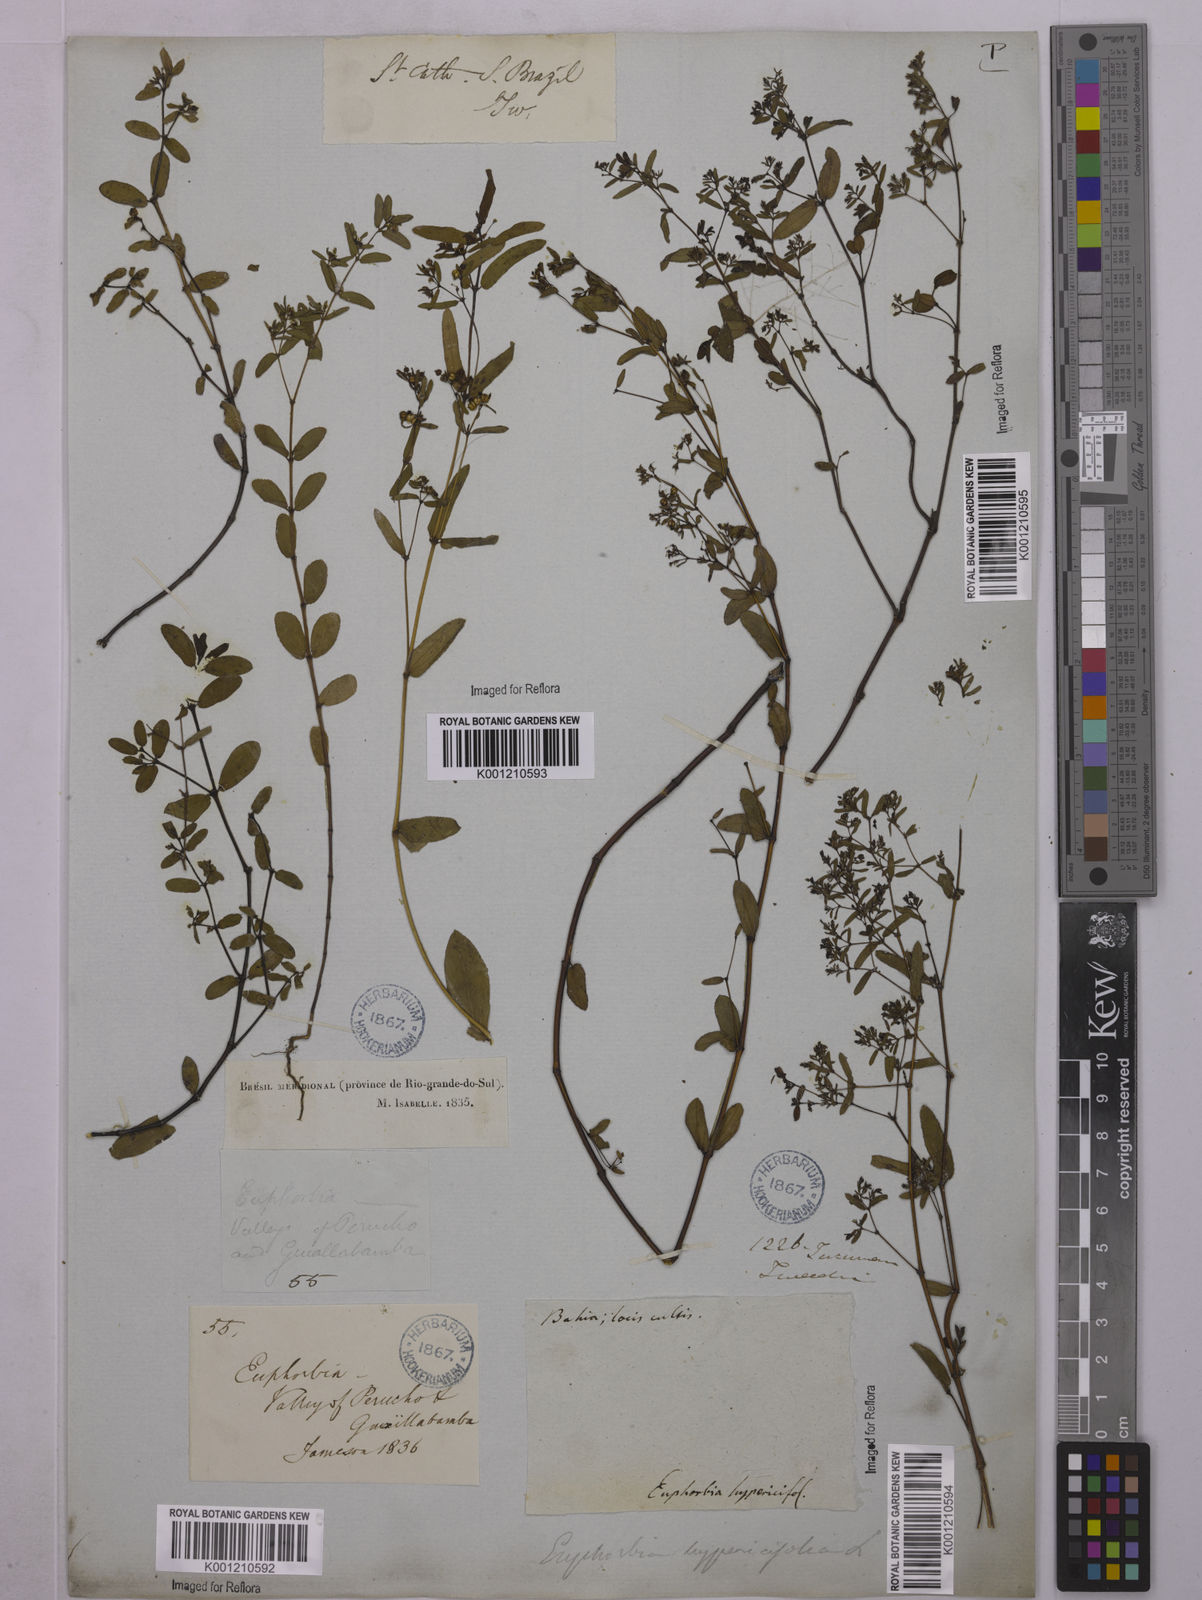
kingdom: Plantae
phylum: Tracheophyta
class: Magnoliopsida
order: Malpighiales
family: Euphorbiaceae
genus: Euphorbia
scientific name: Euphorbia hyssopifolia
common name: Hyssopleaf sandmat
